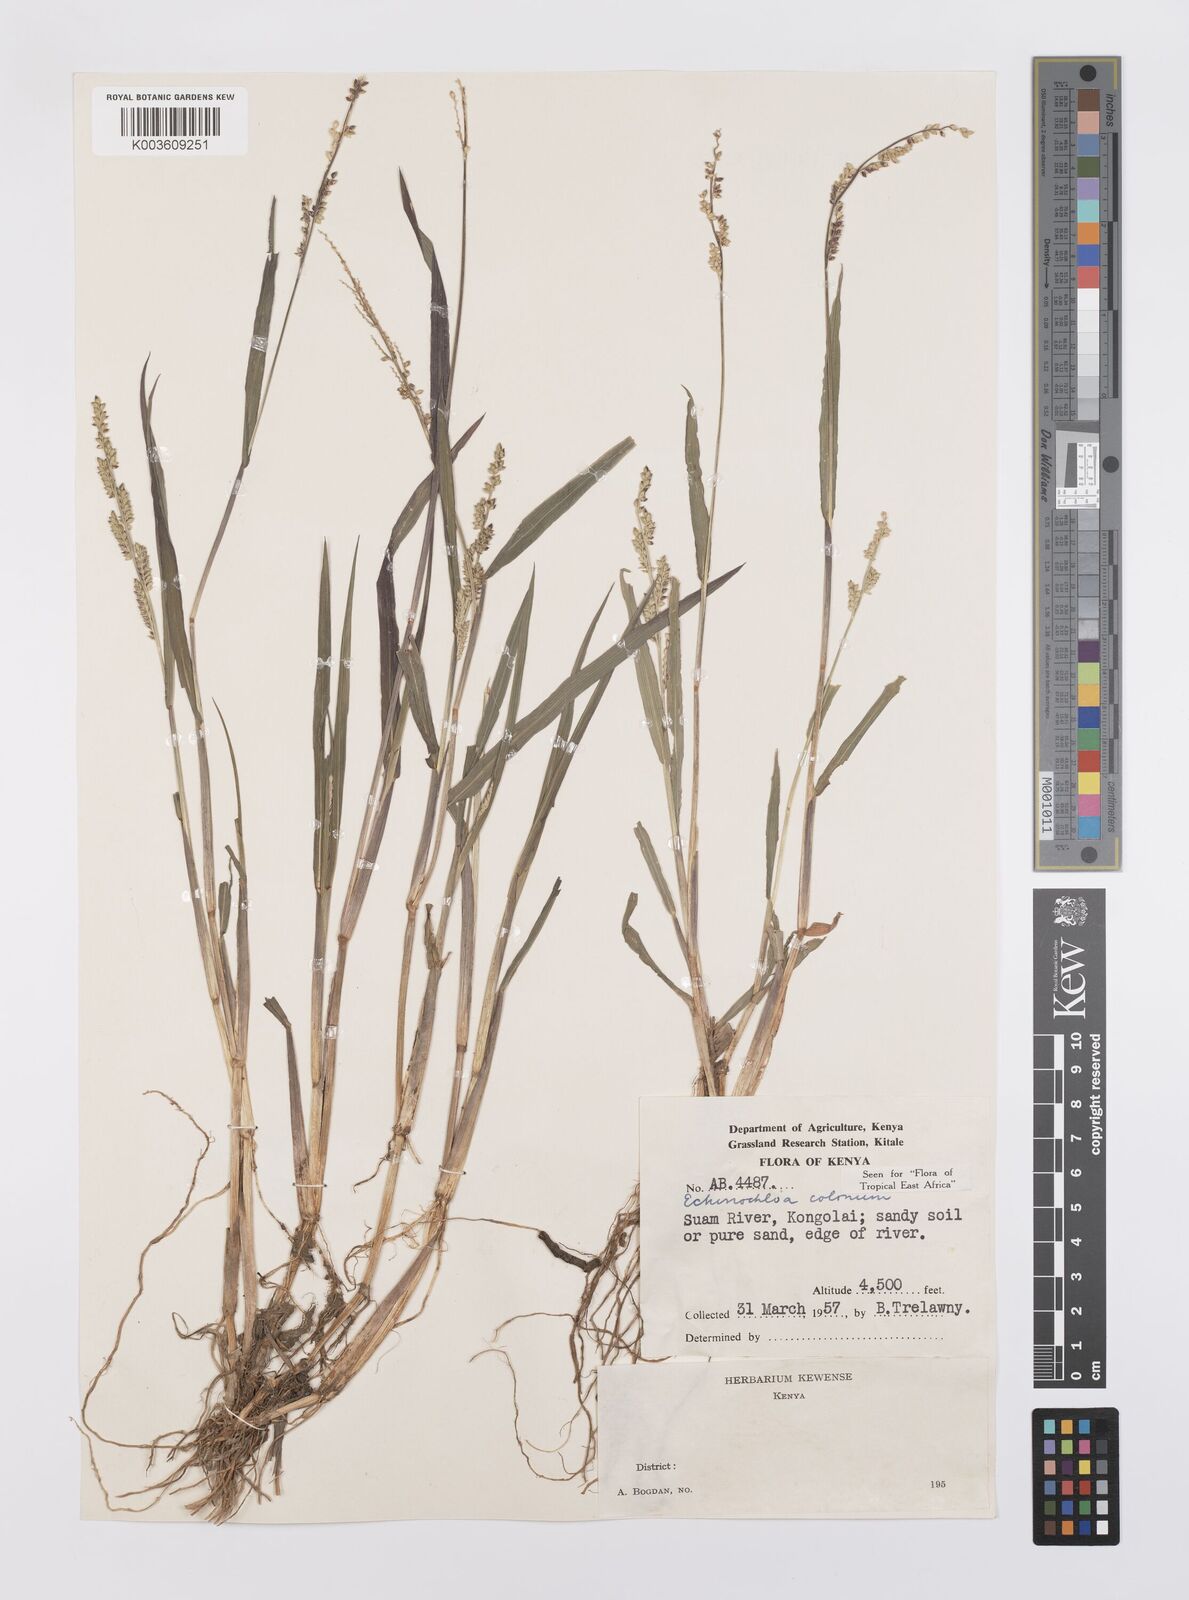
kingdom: Plantae
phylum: Tracheophyta
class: Liliopsida
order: Poales
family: Poaceae
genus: Echinochloa
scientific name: Echinochloa colonum
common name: Jungle rice
